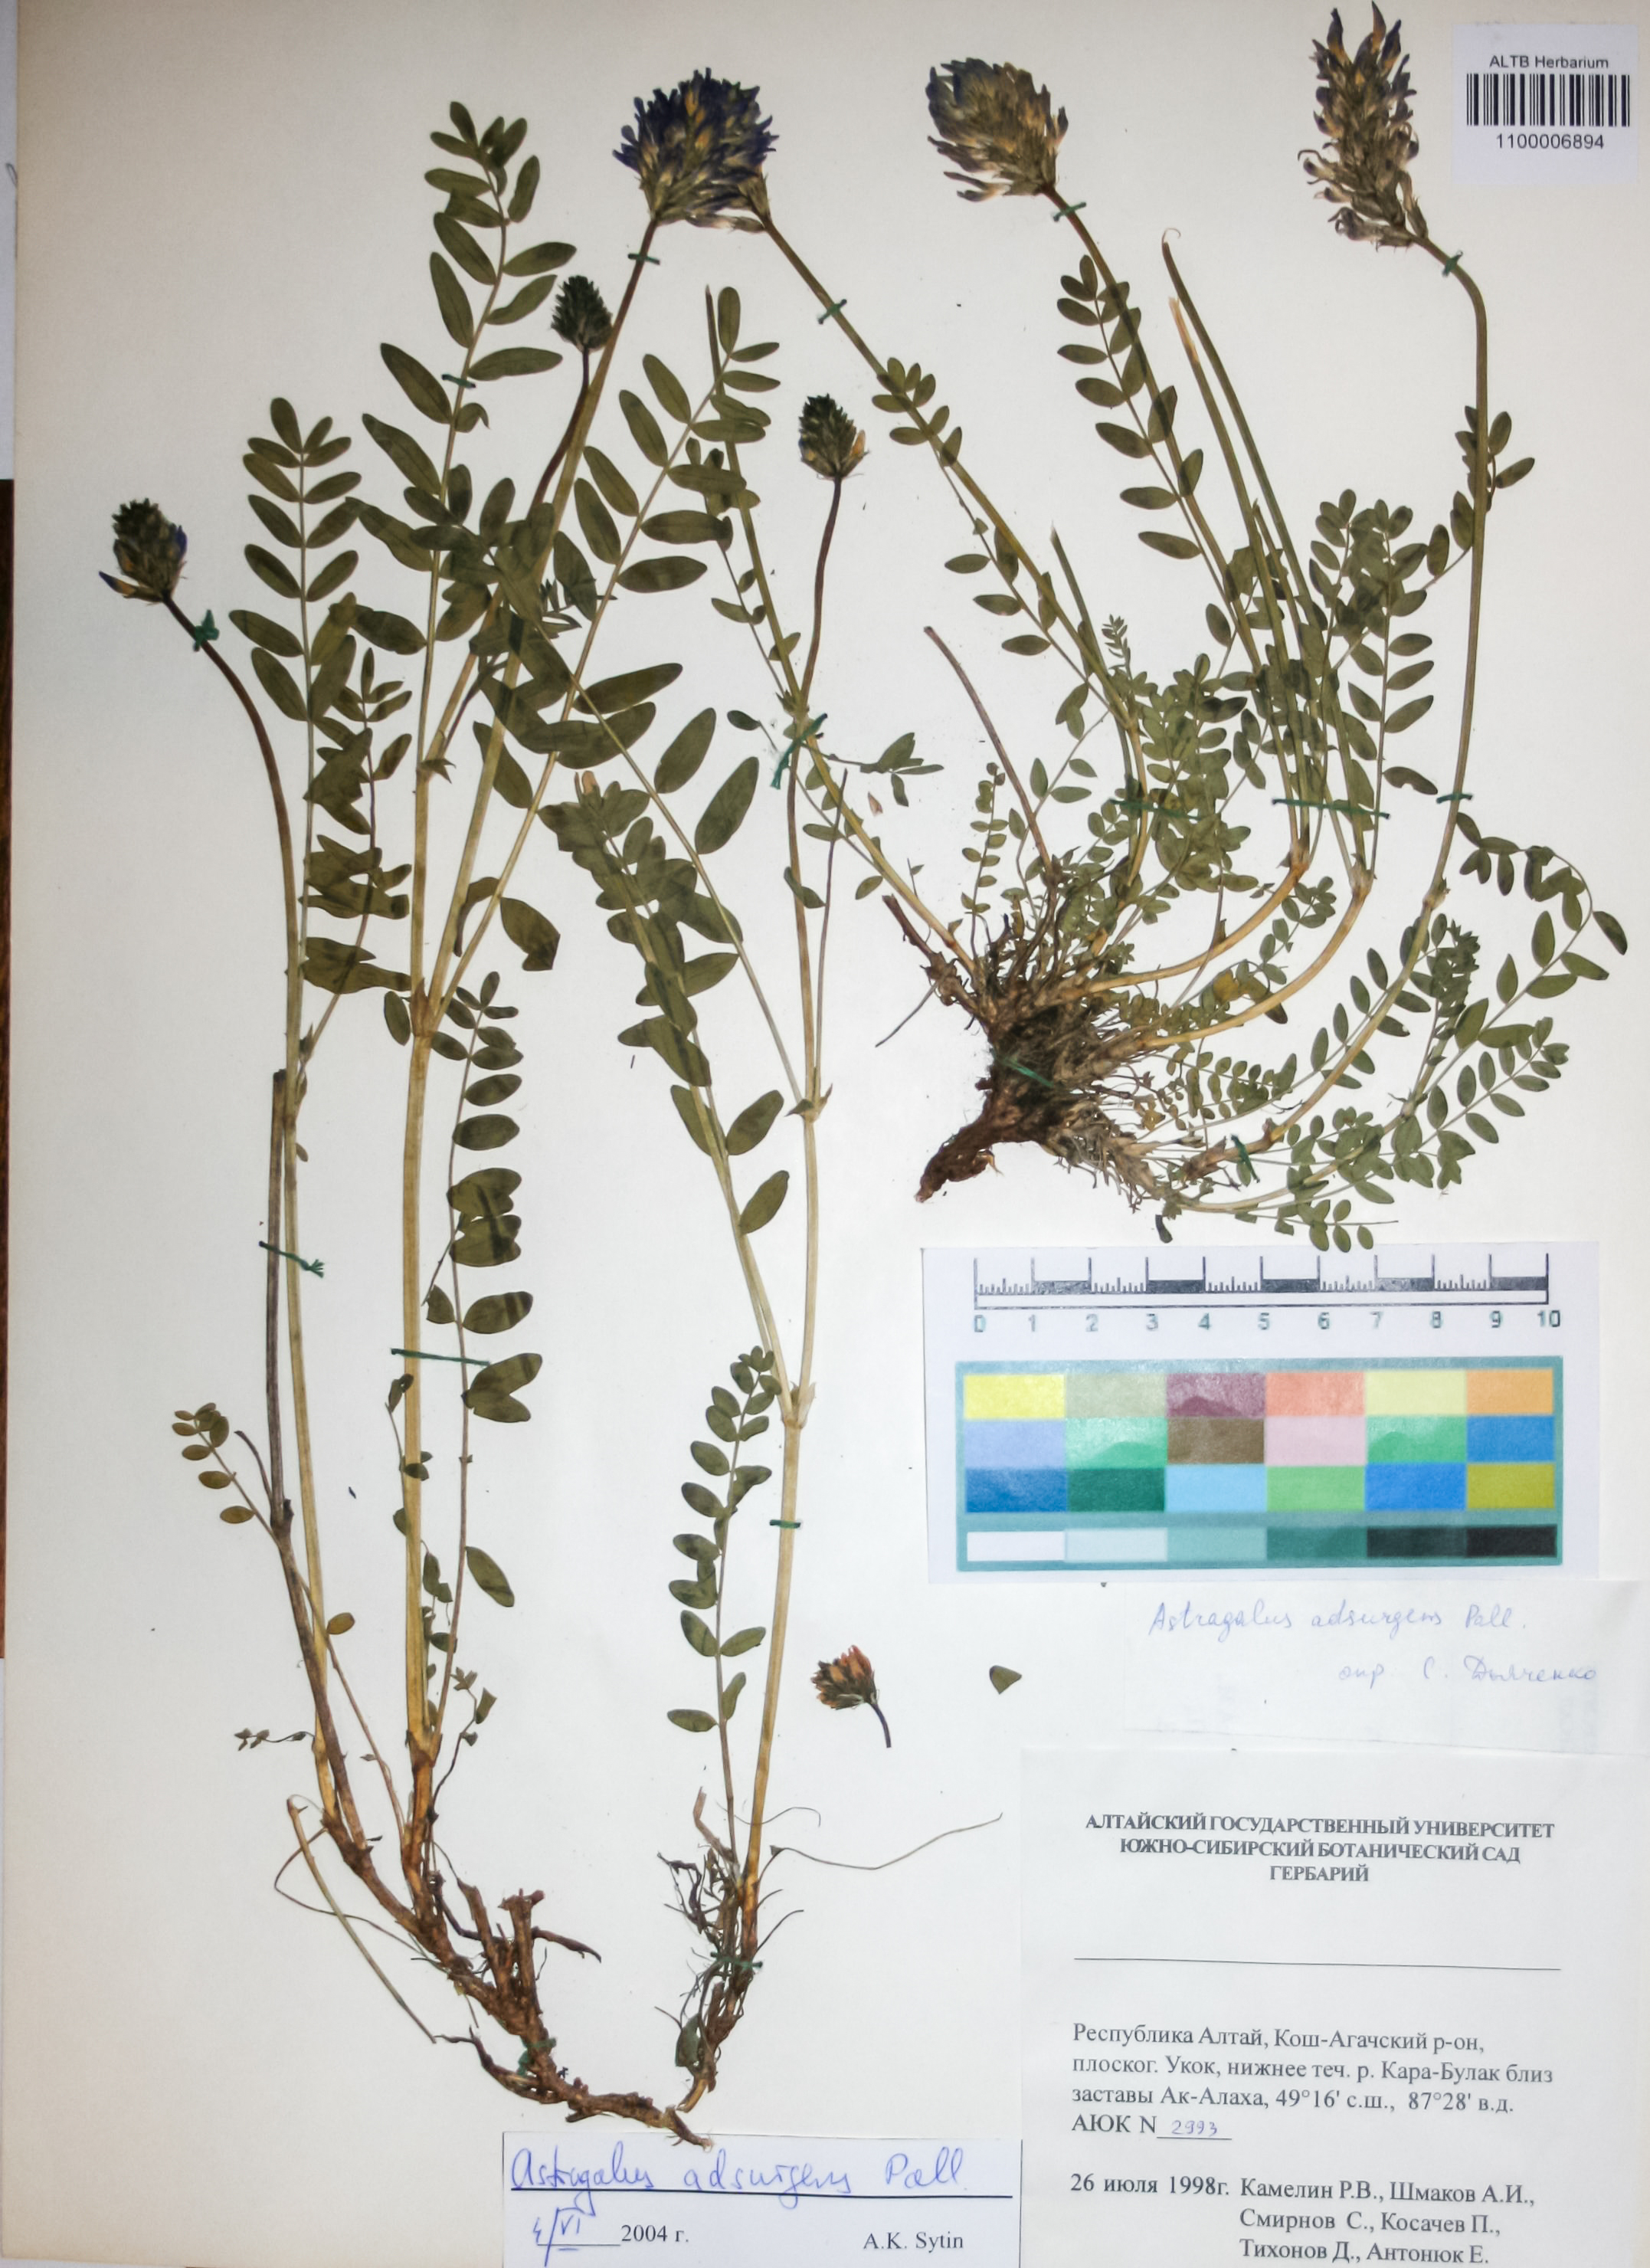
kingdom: Plantae
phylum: Tracheophyta
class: Magnoliopsida
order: Fabales
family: Fabaceae
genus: Astragalus
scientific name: Astragalus laxmannii
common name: Laxmann's milk-vetch
